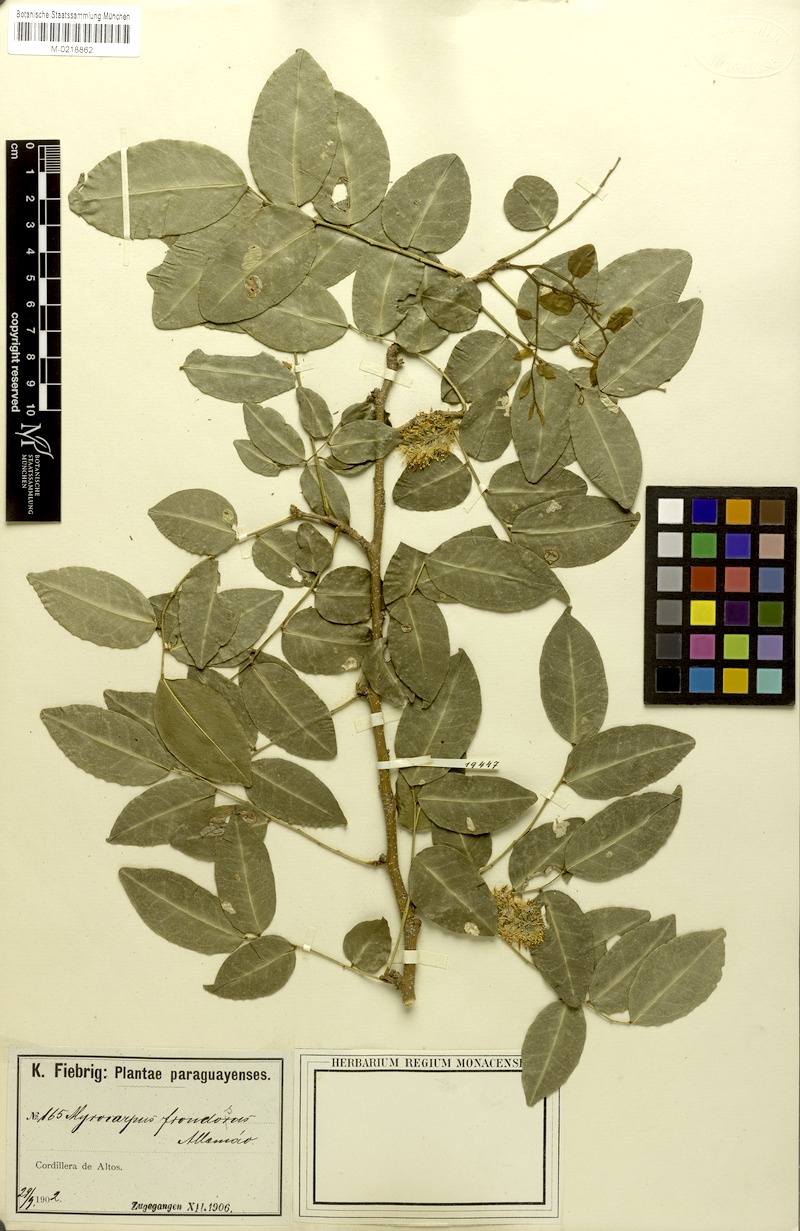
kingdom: Plantae
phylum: Tracheophyta
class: Magnoliopsida
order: Fabales
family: Fabaceae
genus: Myrocarpus
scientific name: Myrocarpus frondosus
